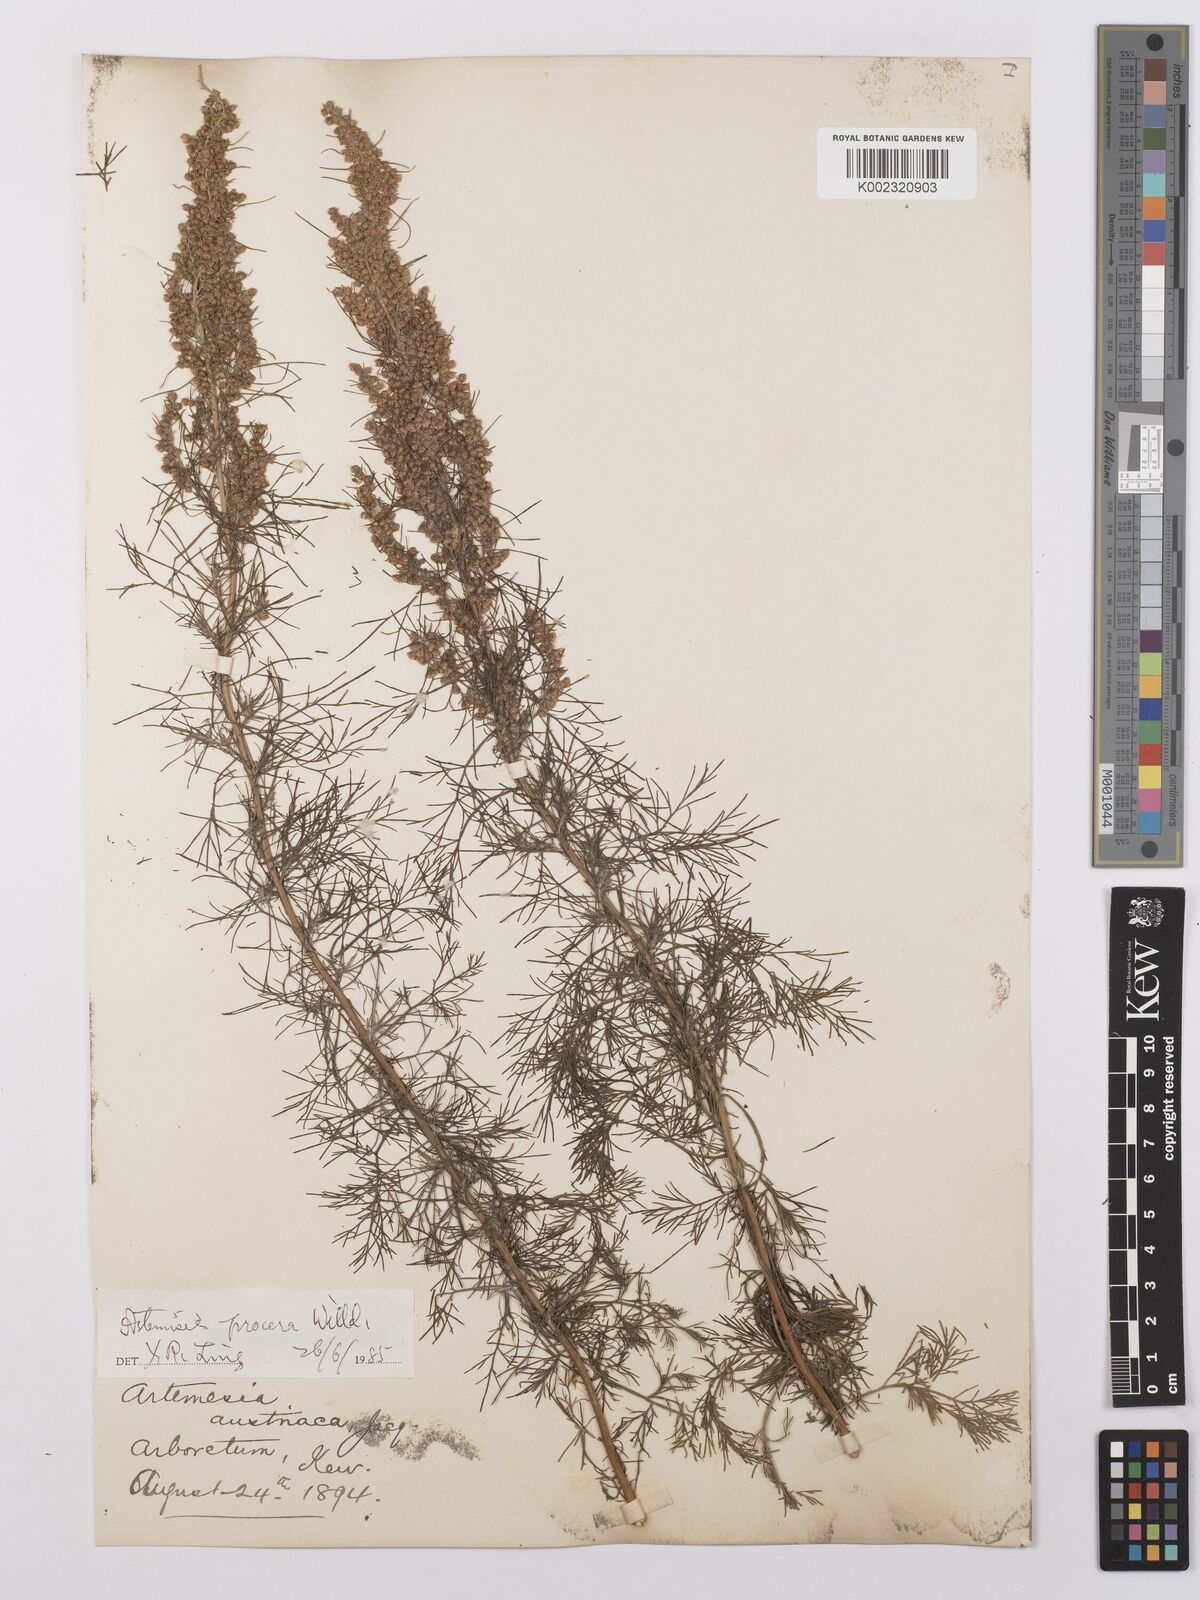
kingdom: Plantae
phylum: Tracheophyta
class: Magnoliopsida
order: Asterales
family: Asteraceae
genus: Artemisia
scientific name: Artemisia abrotanum
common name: Southernwood
